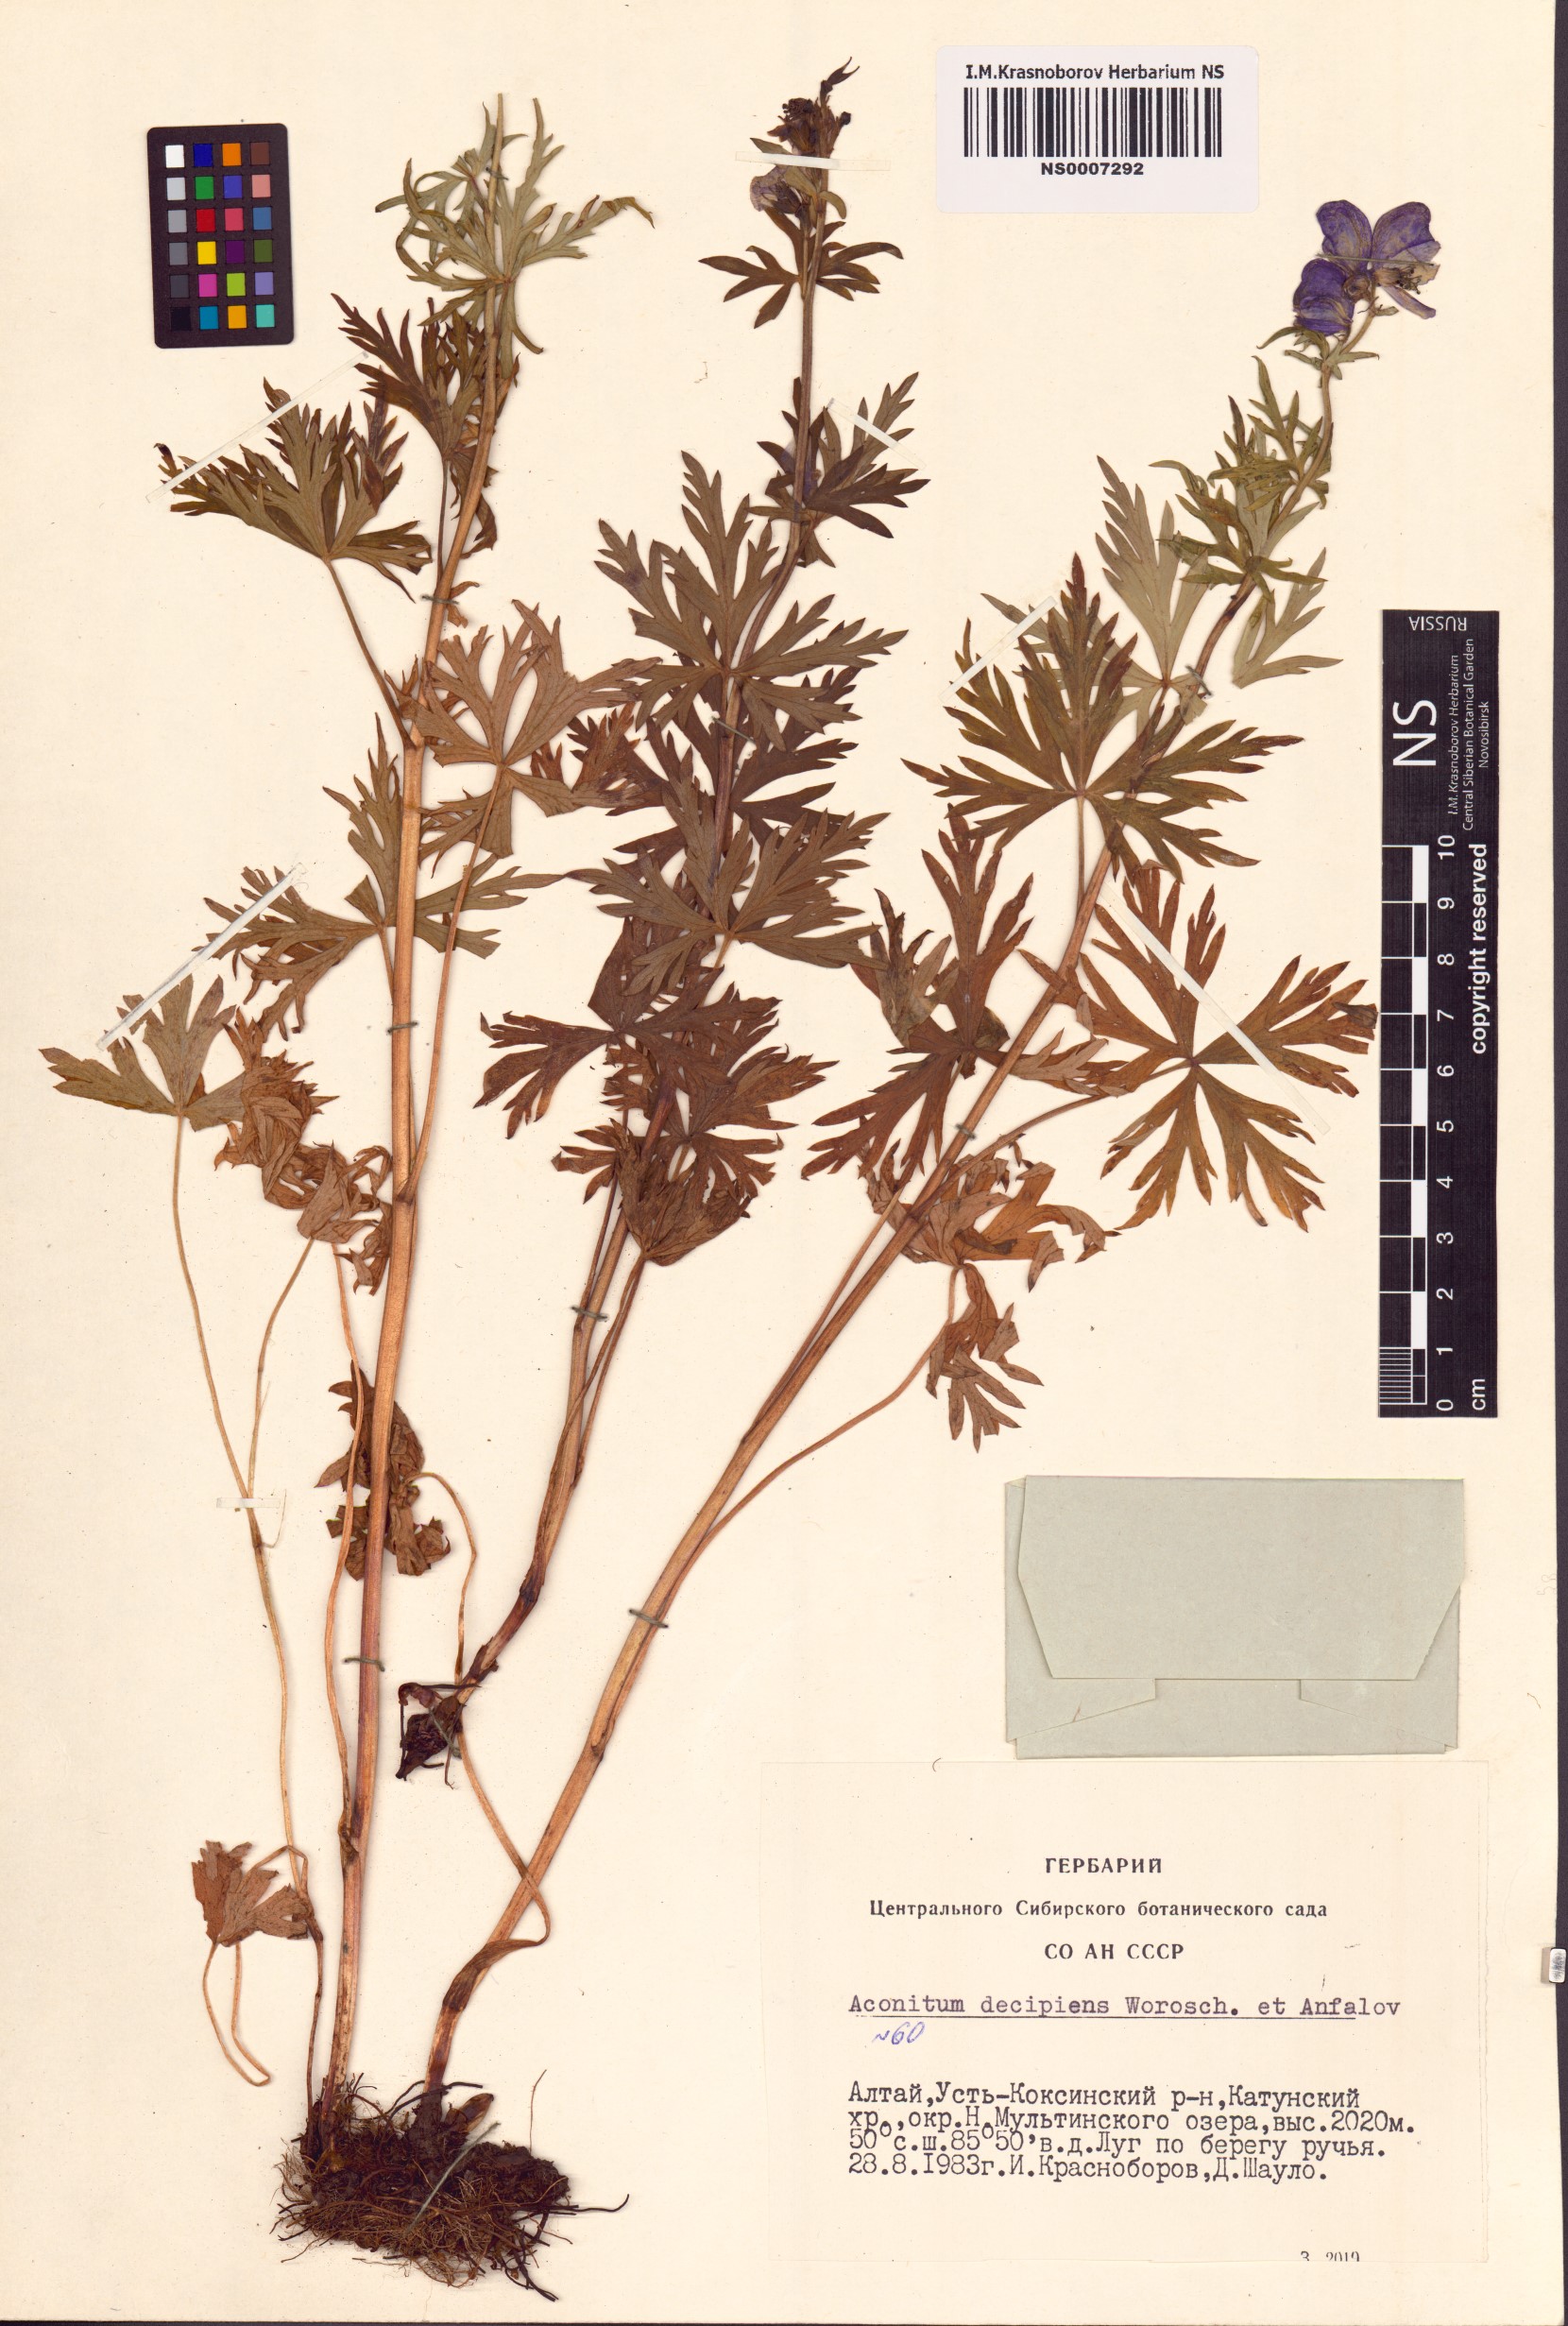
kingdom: Plantae
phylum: Tracheophyta
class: Magnoliopsida
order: Ranunculales
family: Ranunculaceae
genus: Aconitum
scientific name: Aconitum decipiens
